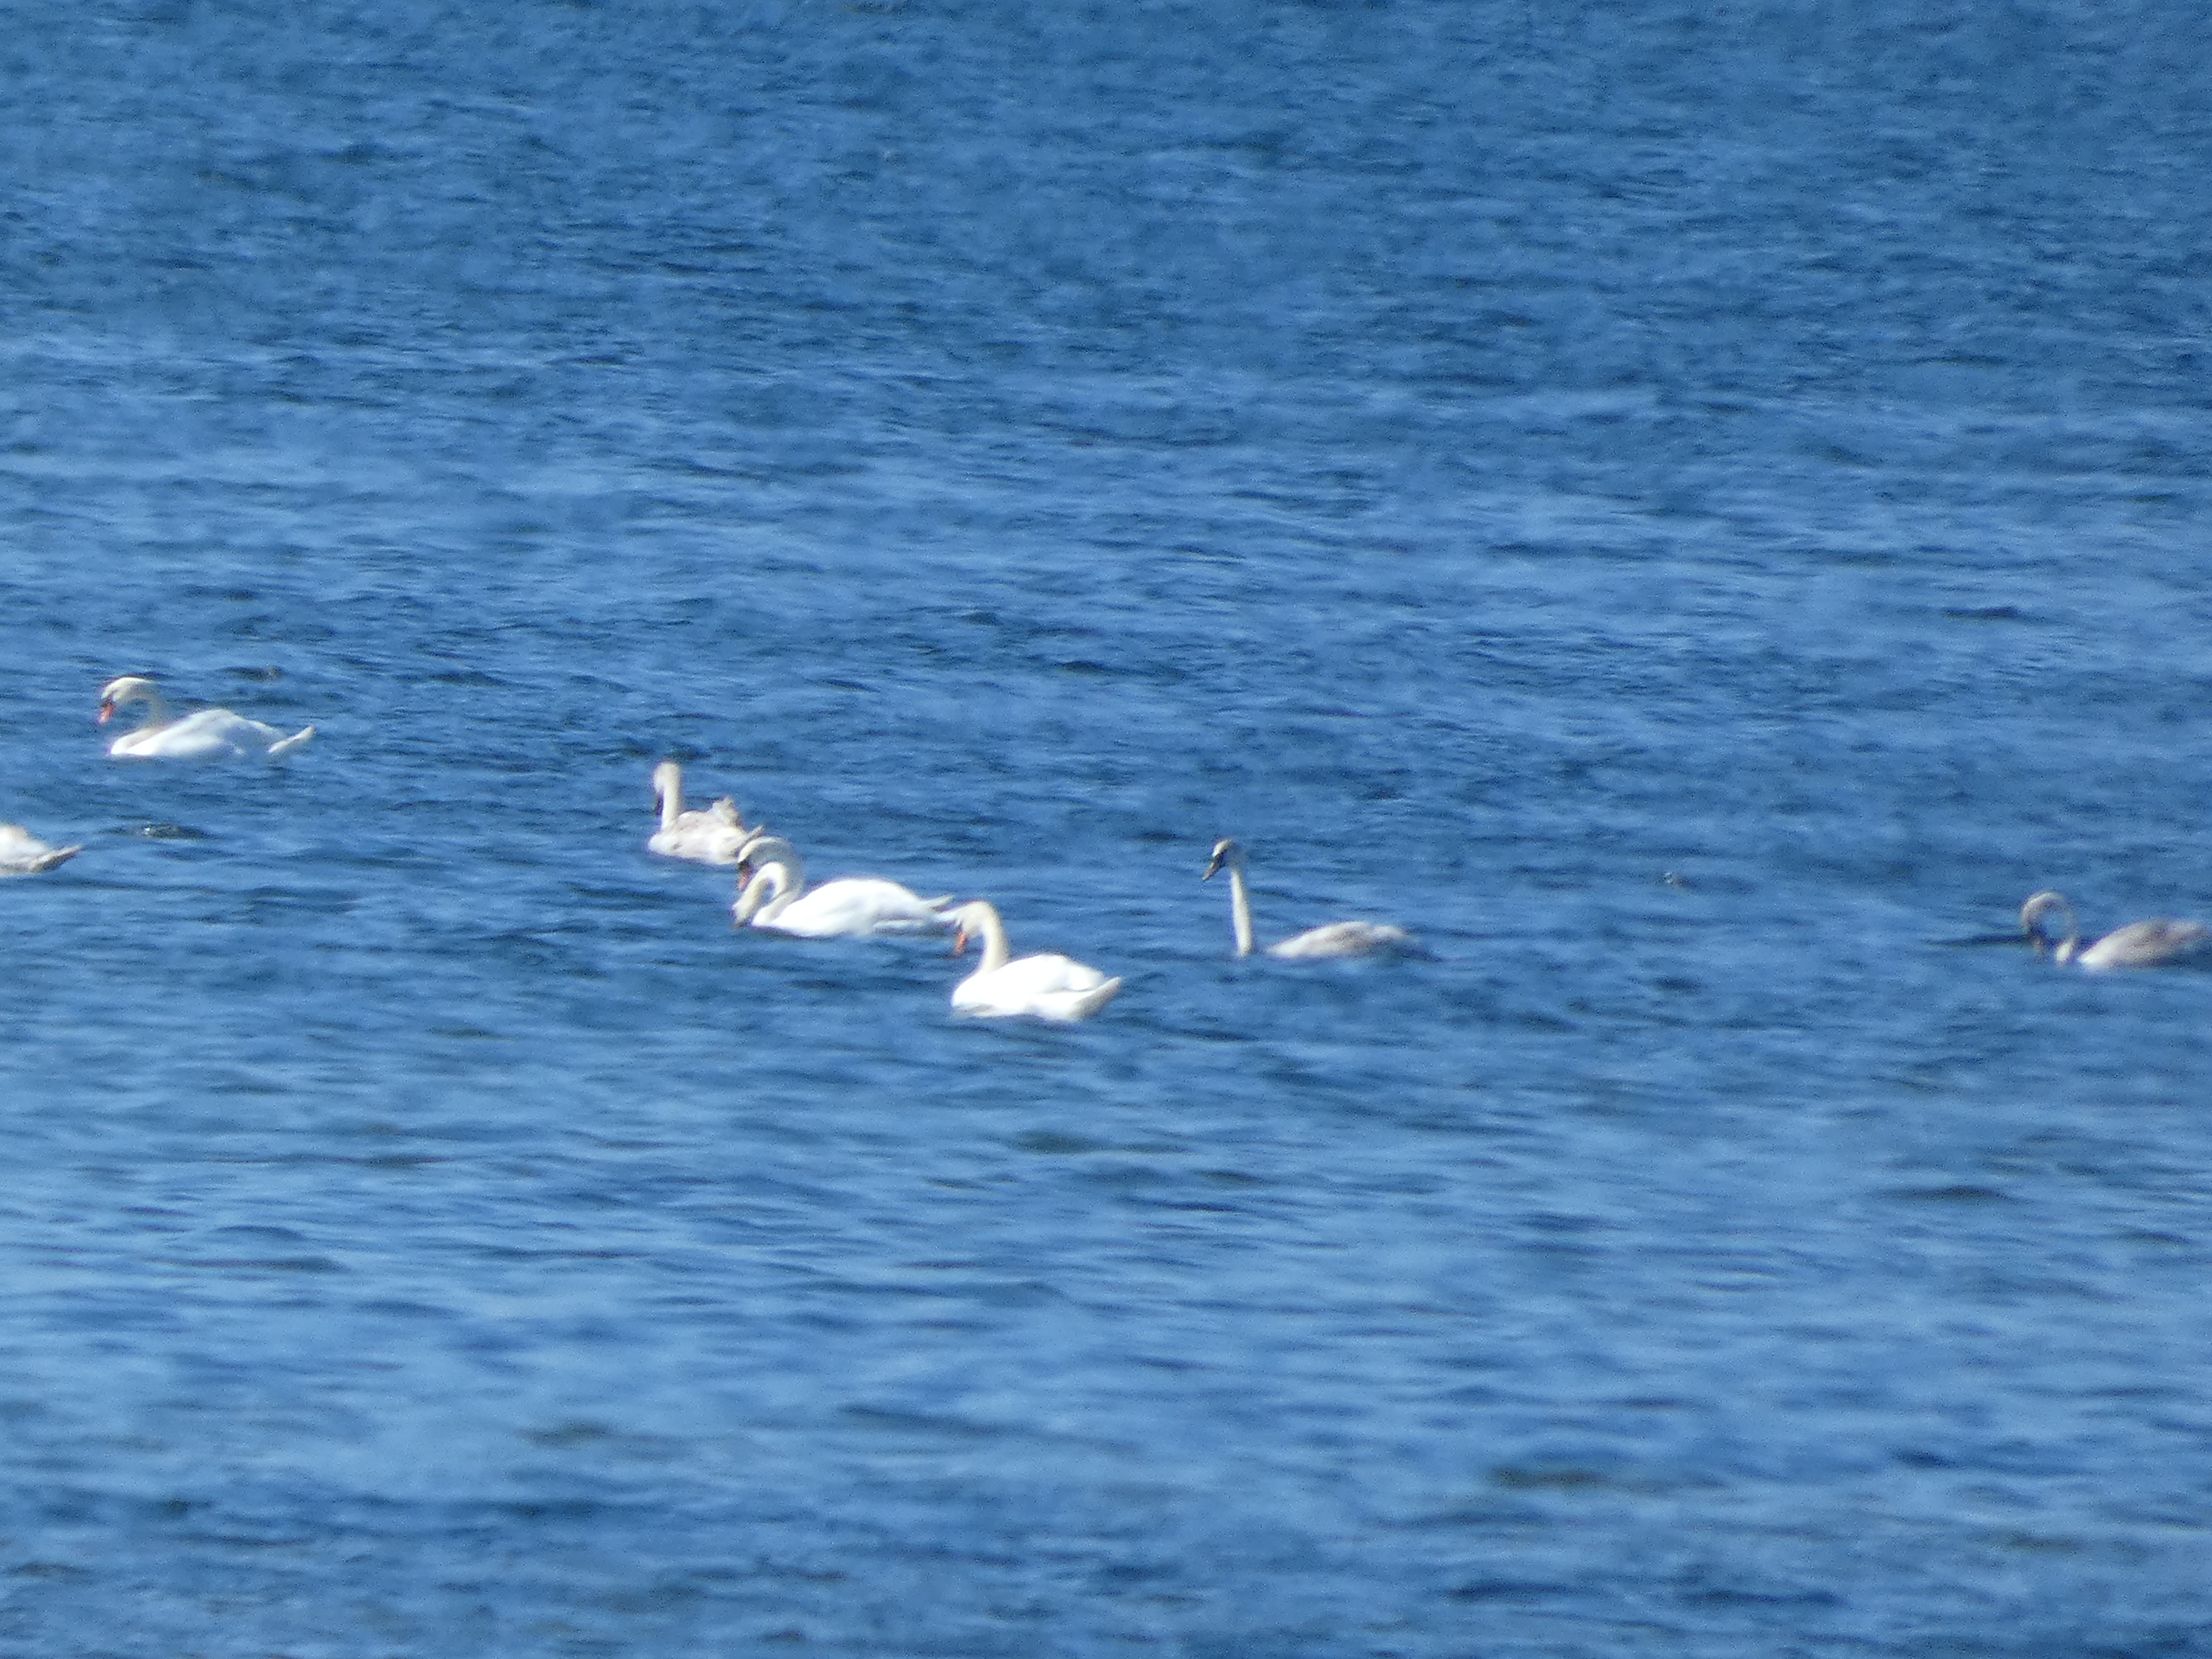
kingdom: Animalia
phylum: Chordata
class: Aves
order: Anseriformes
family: Anatidae
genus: Cygnus
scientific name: Cygnus olor
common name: Knopsvane
